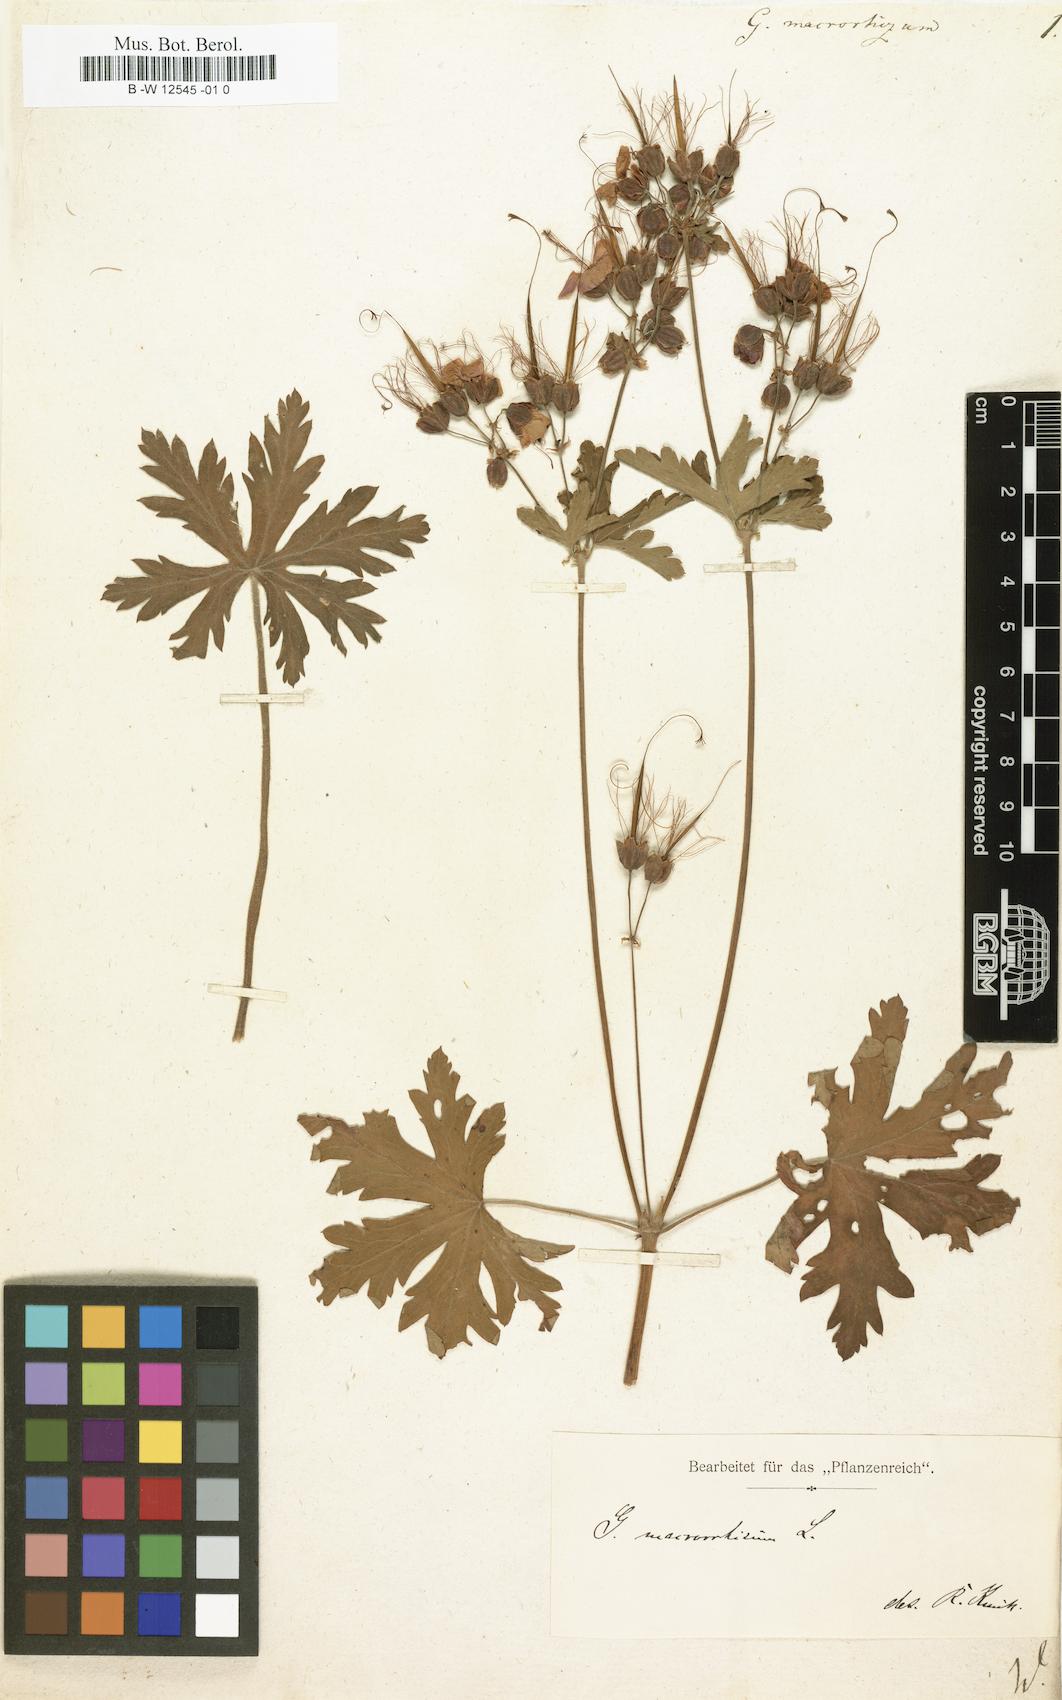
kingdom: Plantae
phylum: Tracheophyta
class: Magnoliopsida
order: Geraniales
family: Geraniaceae
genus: Geranium
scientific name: Geranium macrorrhizum
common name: Rock crane's-bill
